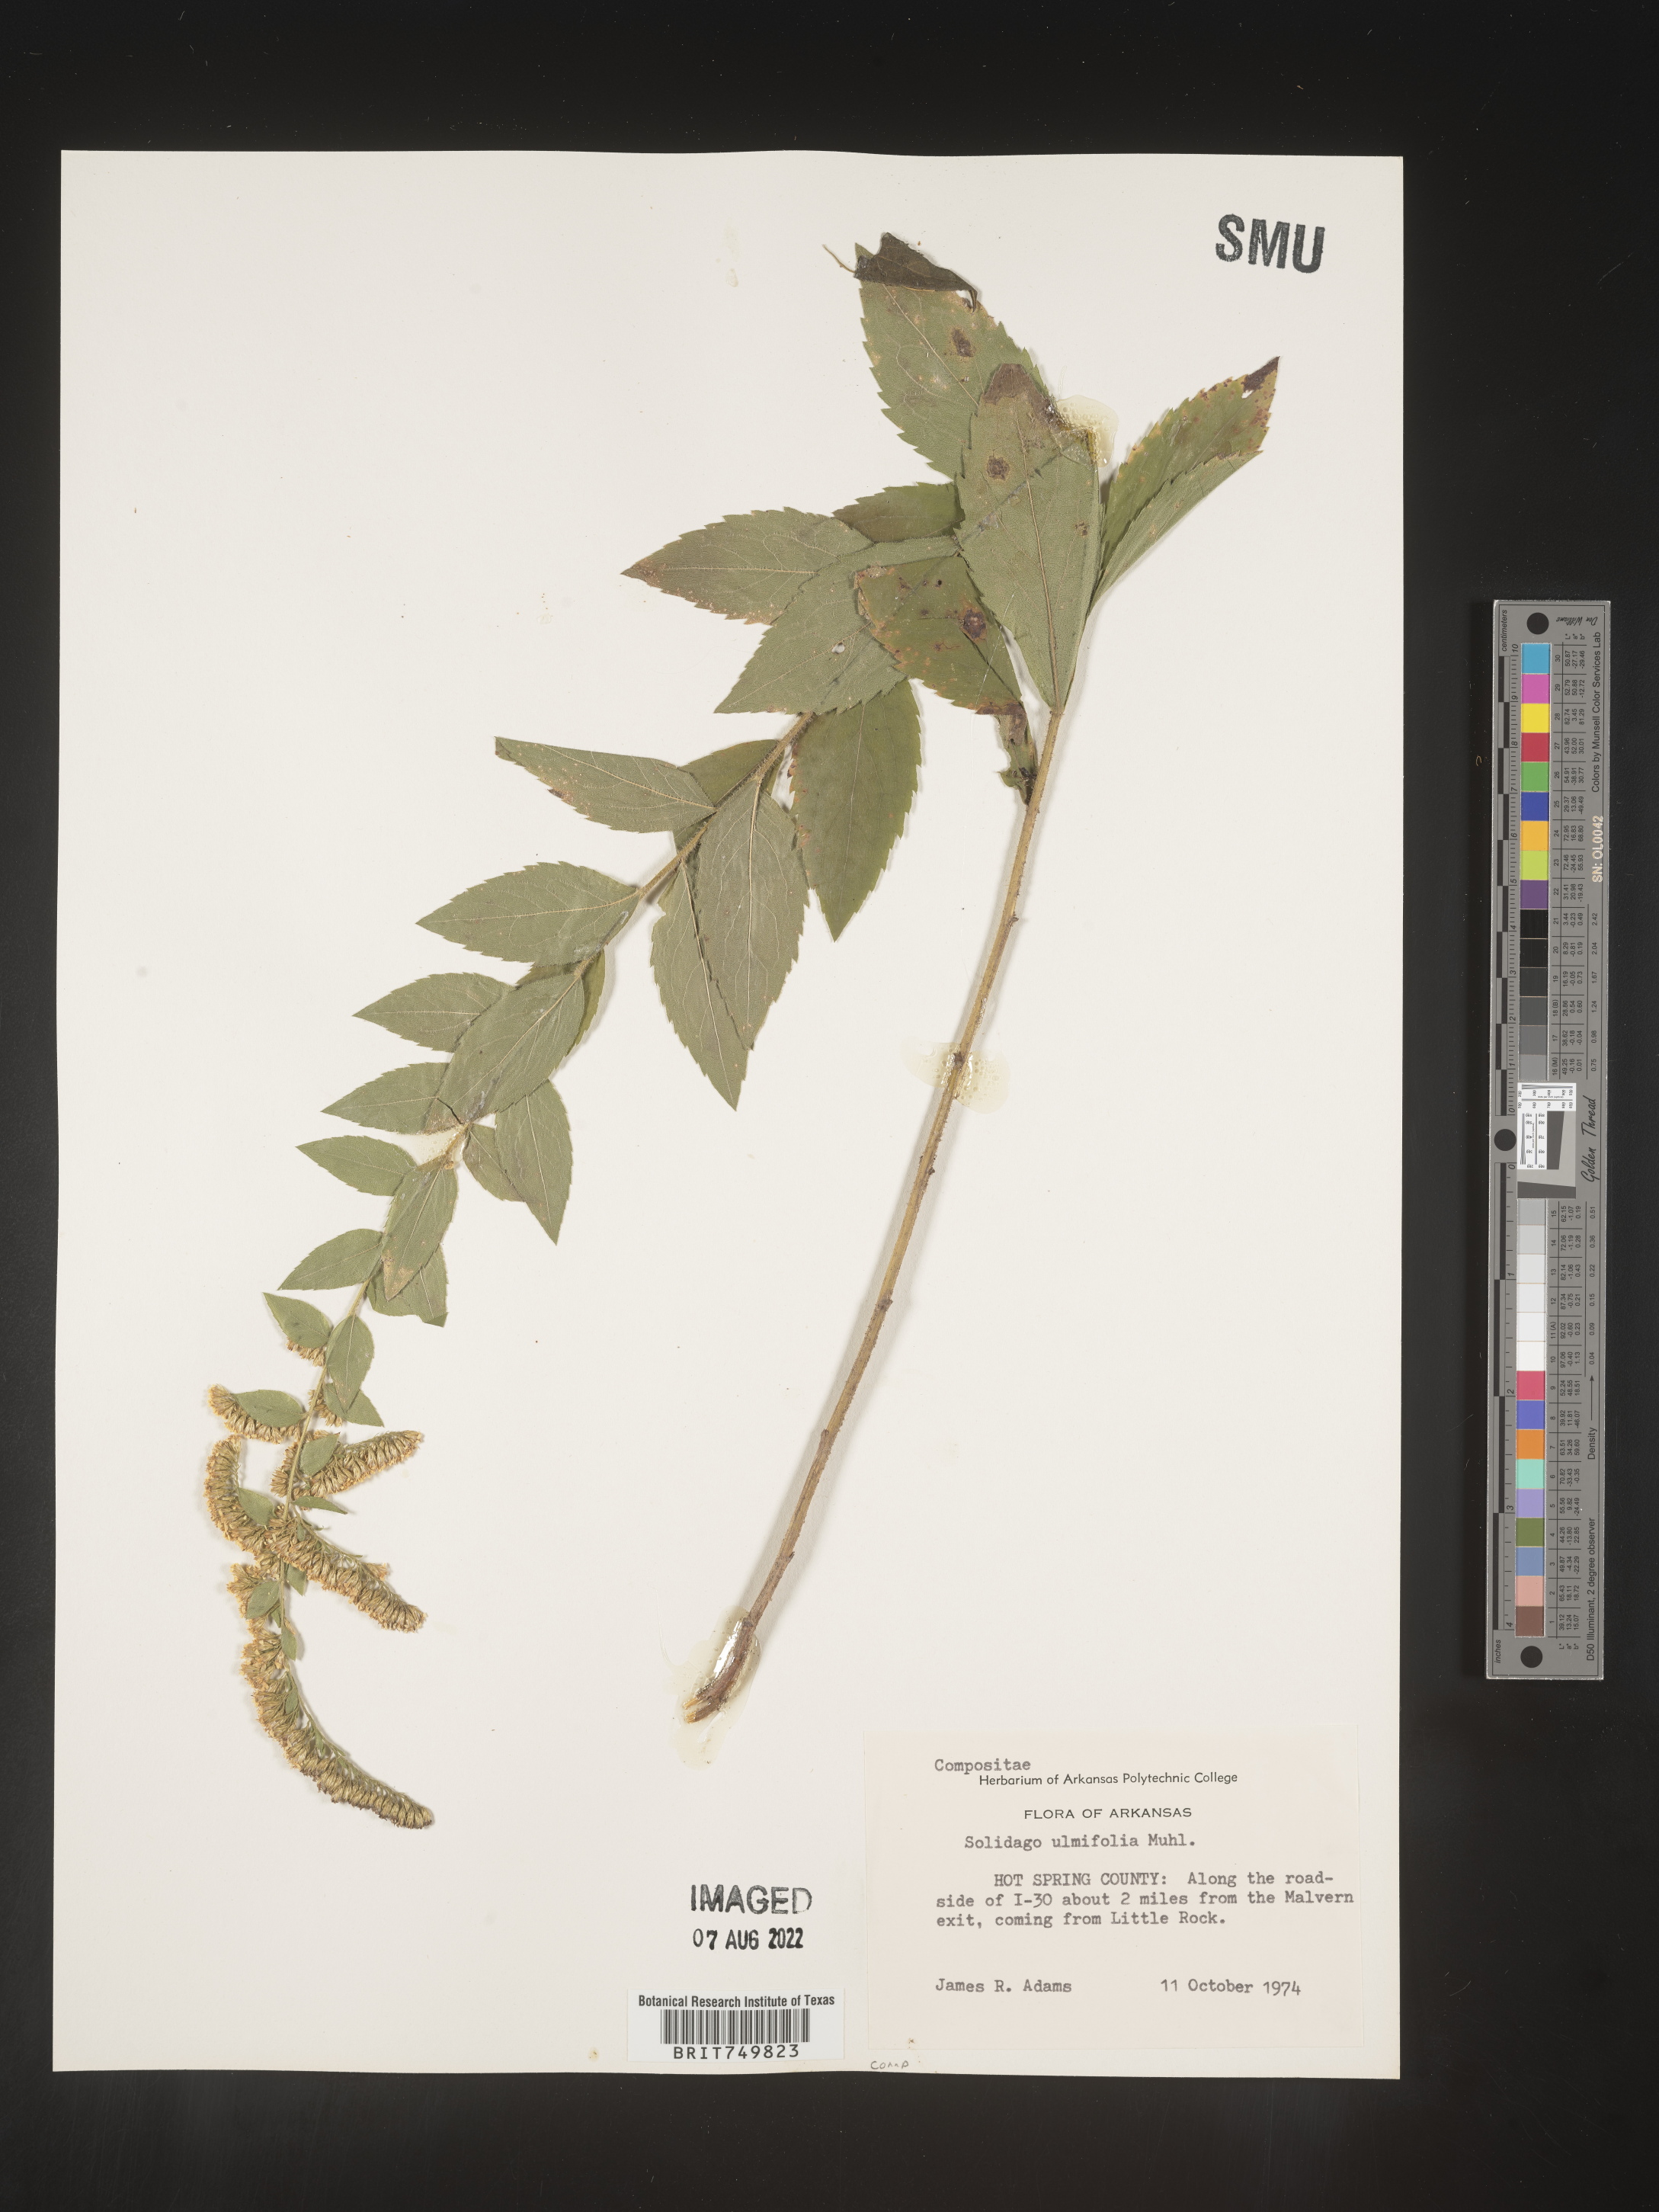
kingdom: Plantae
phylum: Tracheophyta
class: Magnoliopsida
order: Asterales
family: Asteraceae
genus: Solidago
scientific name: Solidago ulmifolia
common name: Elm-leaf goldenrod
